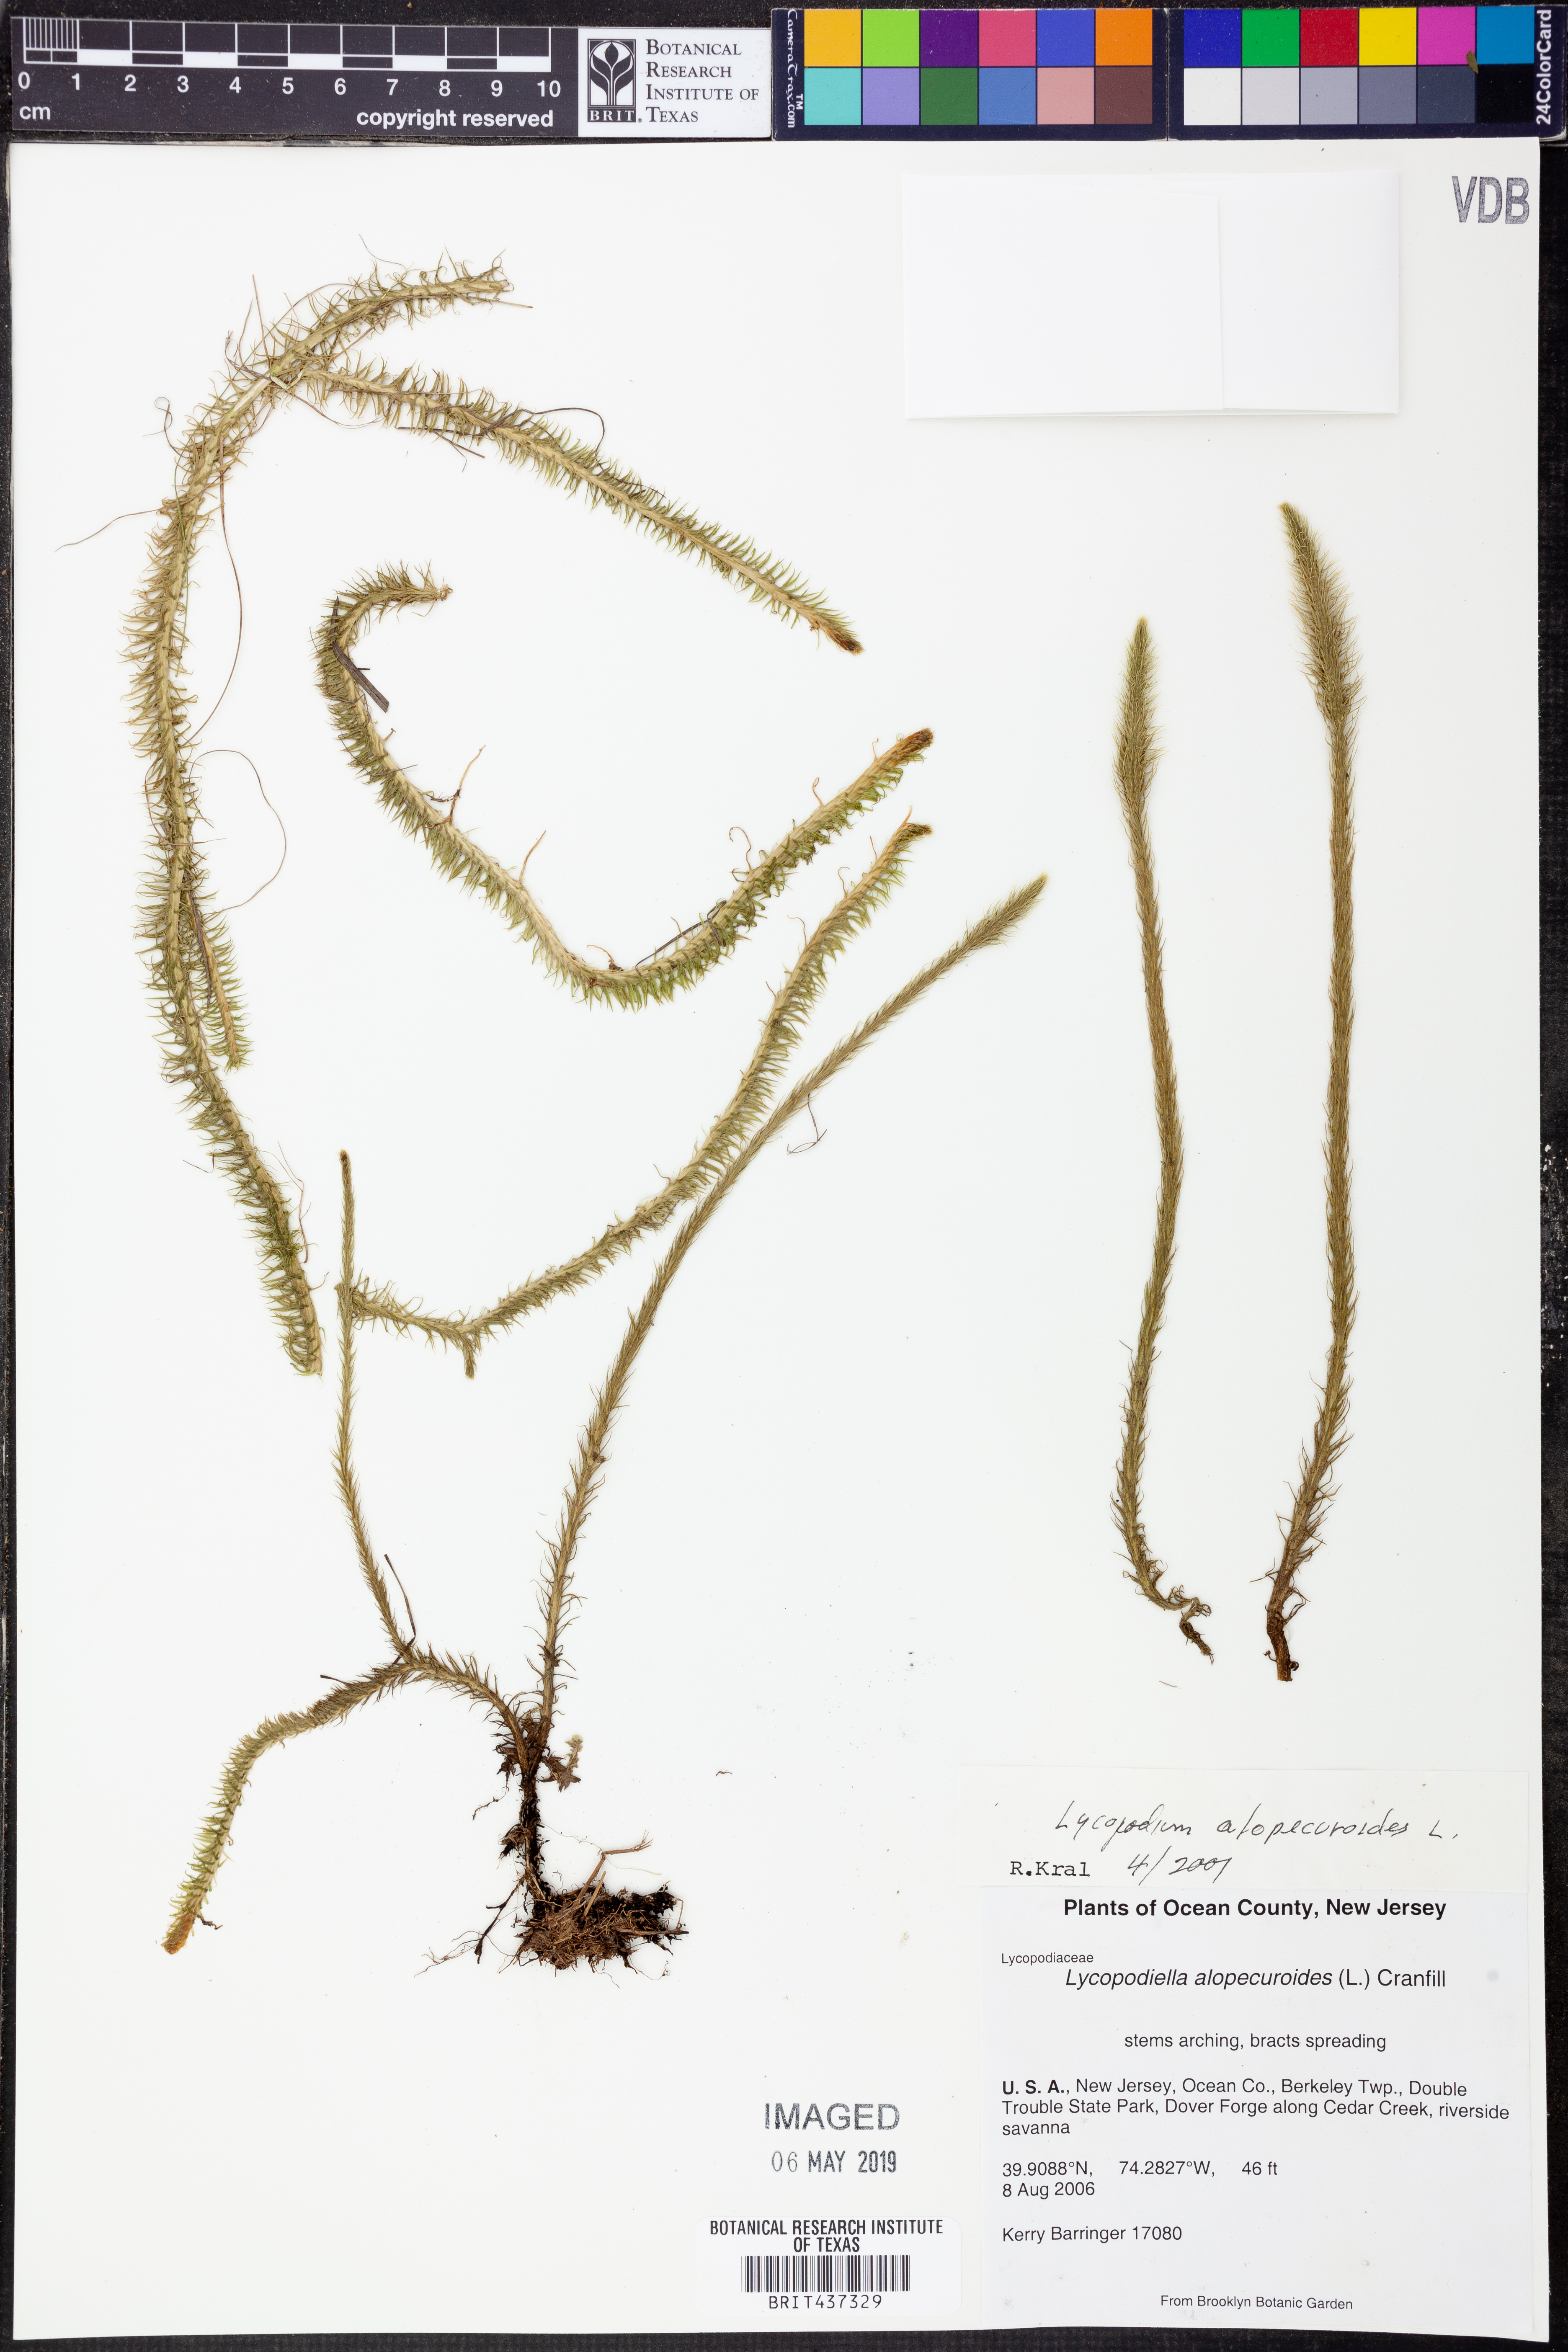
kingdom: Plantae
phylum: Tracheophyta
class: Lycopodiopsida
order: Lycopodiales
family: Lycopodiaceae
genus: Lycopodiella
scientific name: Lycopodiella alopecuroides
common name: Foxtail clubmoss
